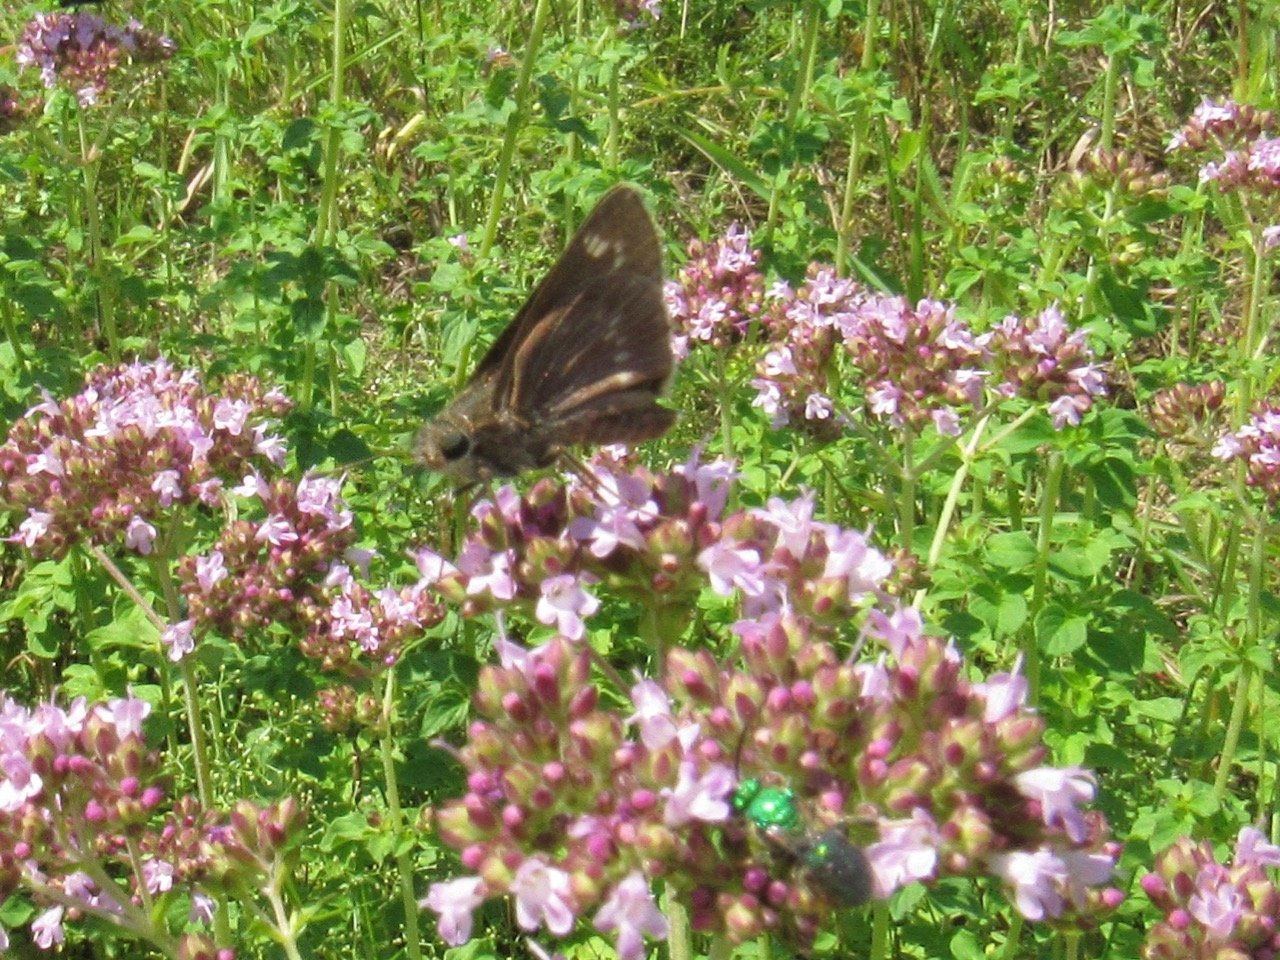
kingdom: Animalia
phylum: Arthropoda
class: Insecta
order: Lepidoptera
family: Hesperiidae
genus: Polites
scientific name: Polites egeremet
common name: Northern Broken-Dash
